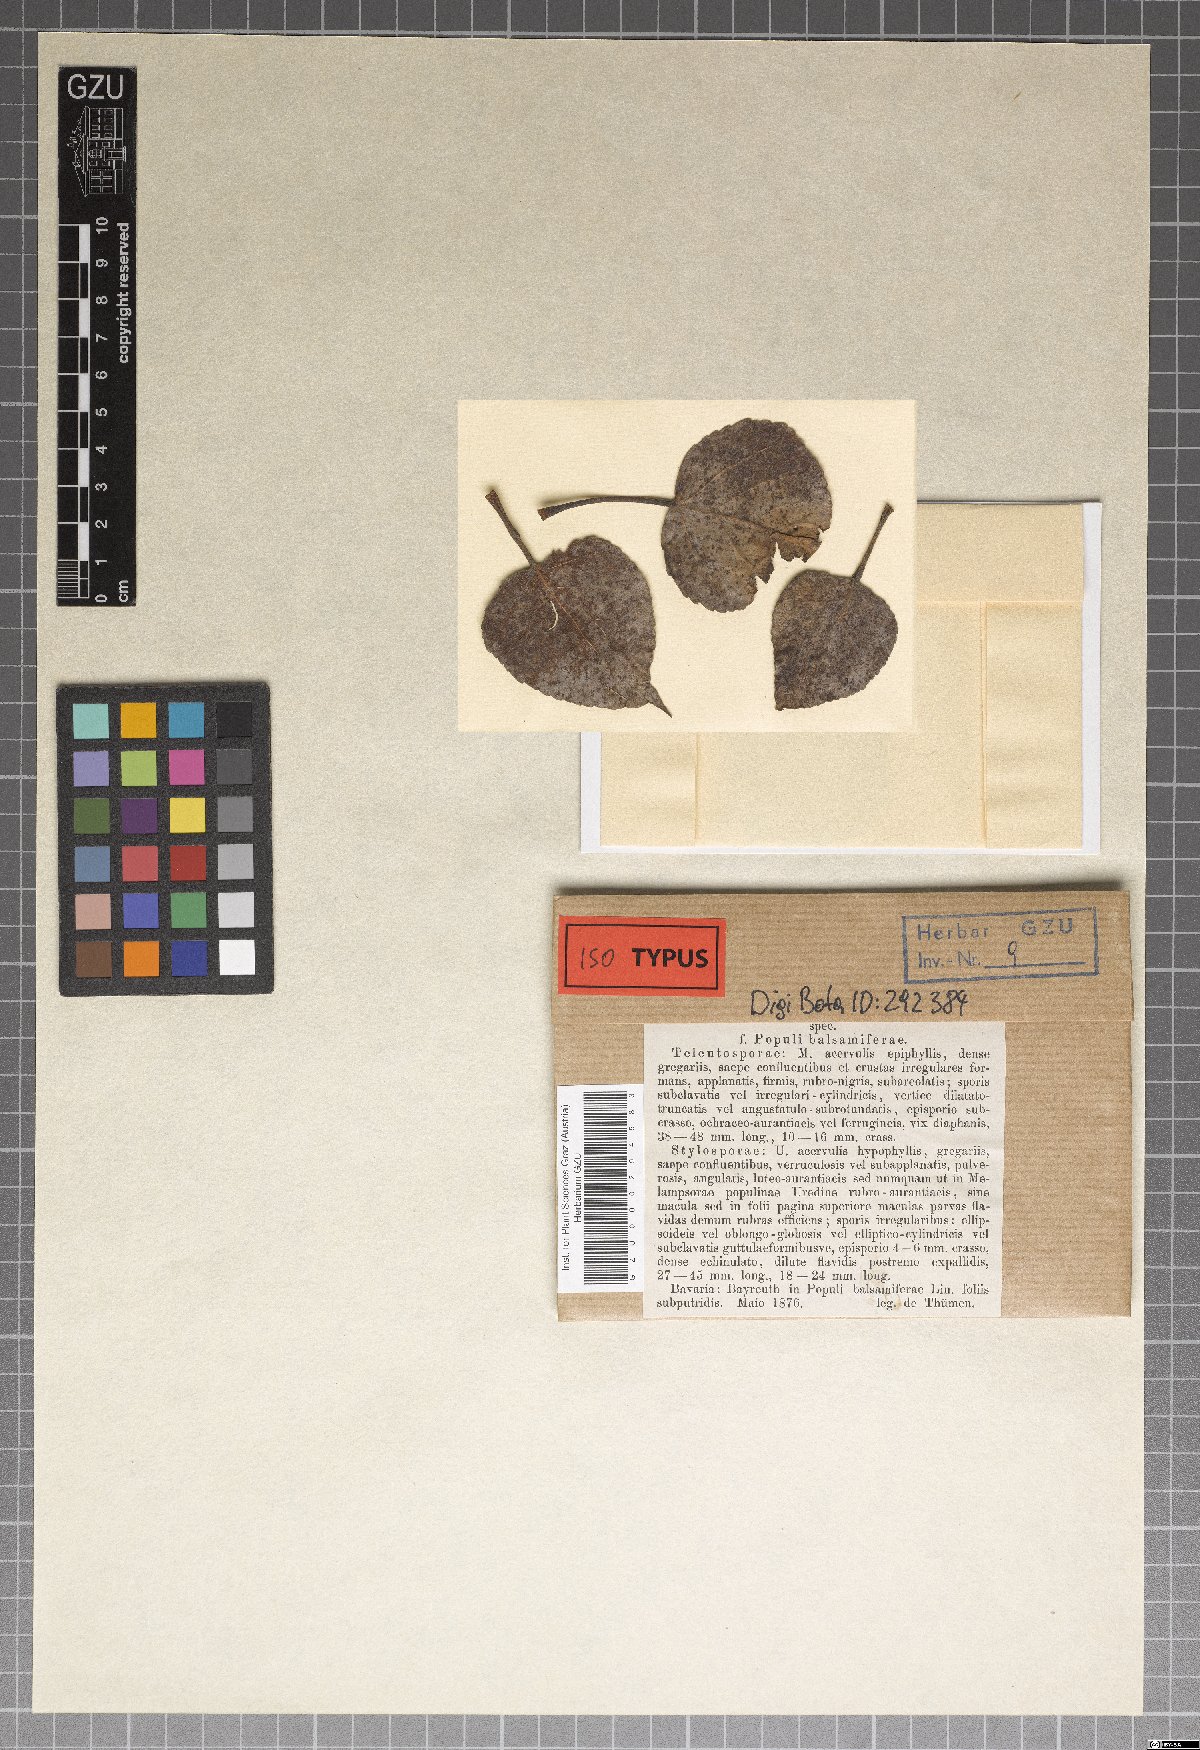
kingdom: Fungi
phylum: Basidiomycota
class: Pucciniomycetes
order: Pucciniales
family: Melampsoraceae
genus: Melampsora
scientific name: Melampsora
